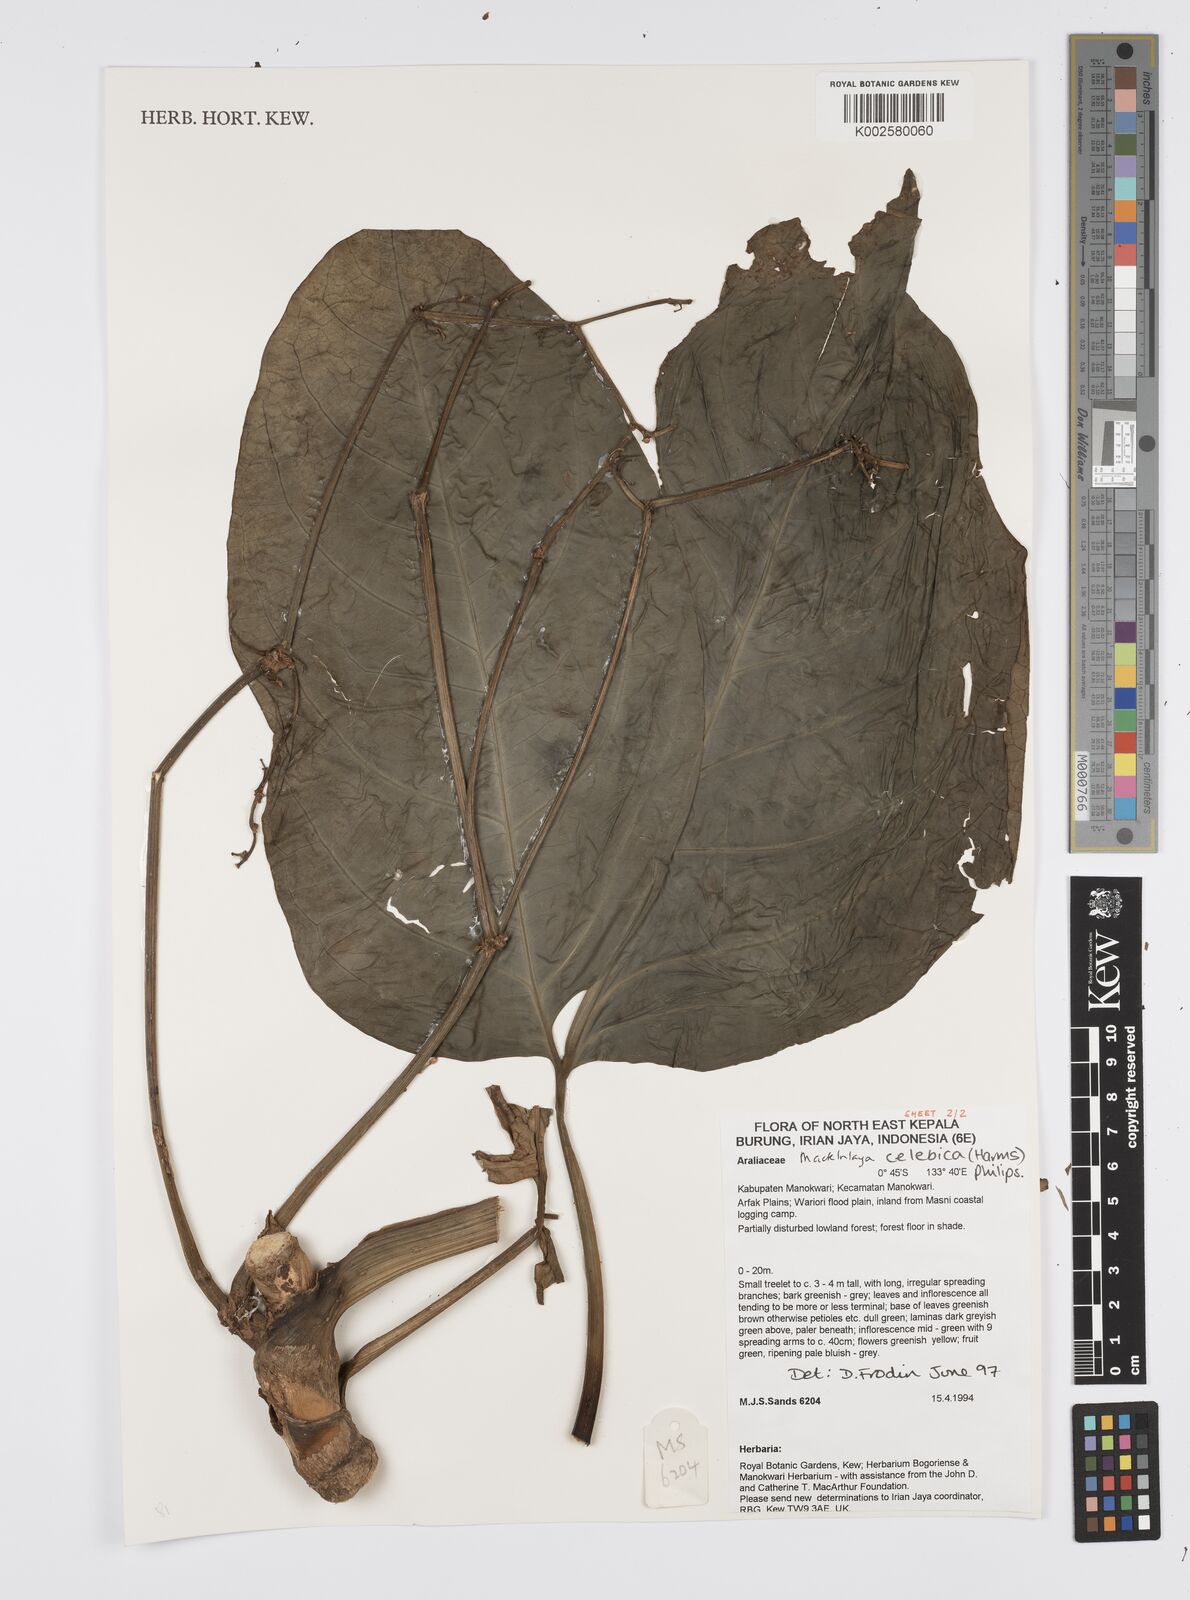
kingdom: Plantae
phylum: Tracheophyta
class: Magnoliopsida
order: Apiales
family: Apiaceae
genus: Mackinlaya
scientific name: Mackinlaya celebica
